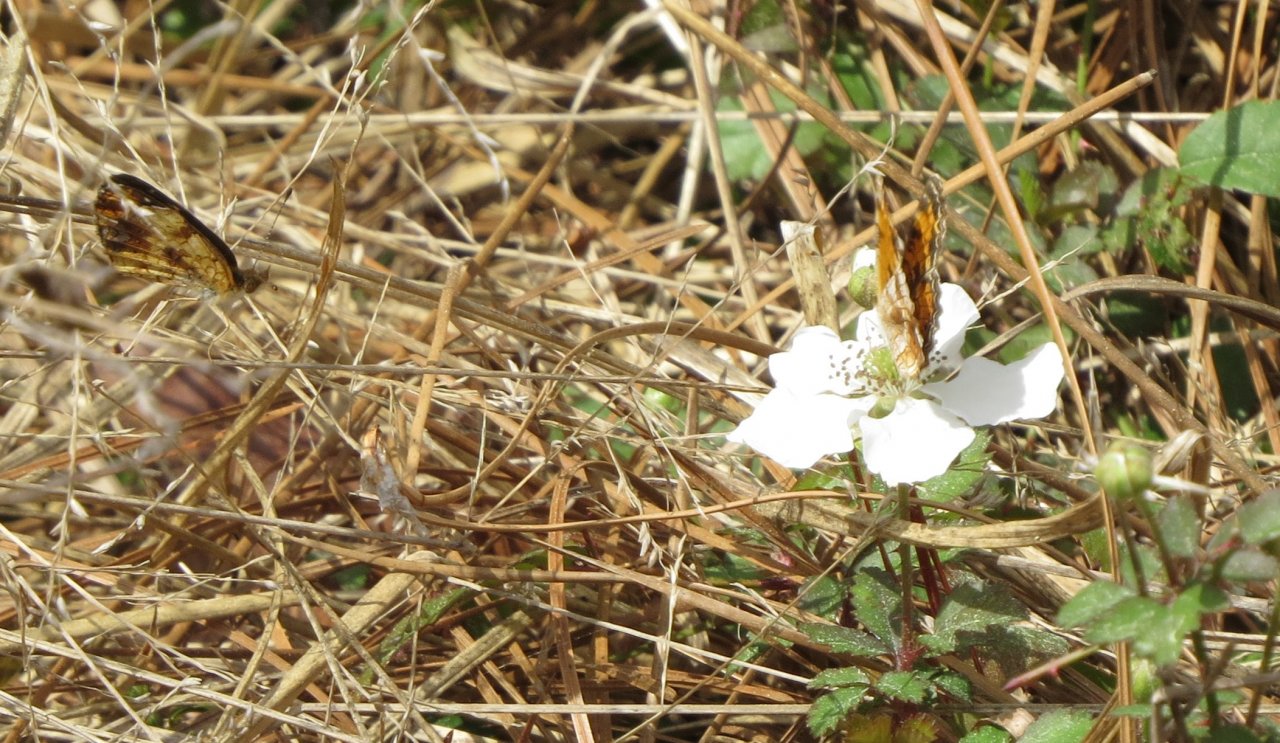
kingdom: Animalia
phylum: Arthropoda
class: Insecta
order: Lepidoptera
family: Nymphalidae
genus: Phyciodes
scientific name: Phyciodes tharos
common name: Pearl Crescent
